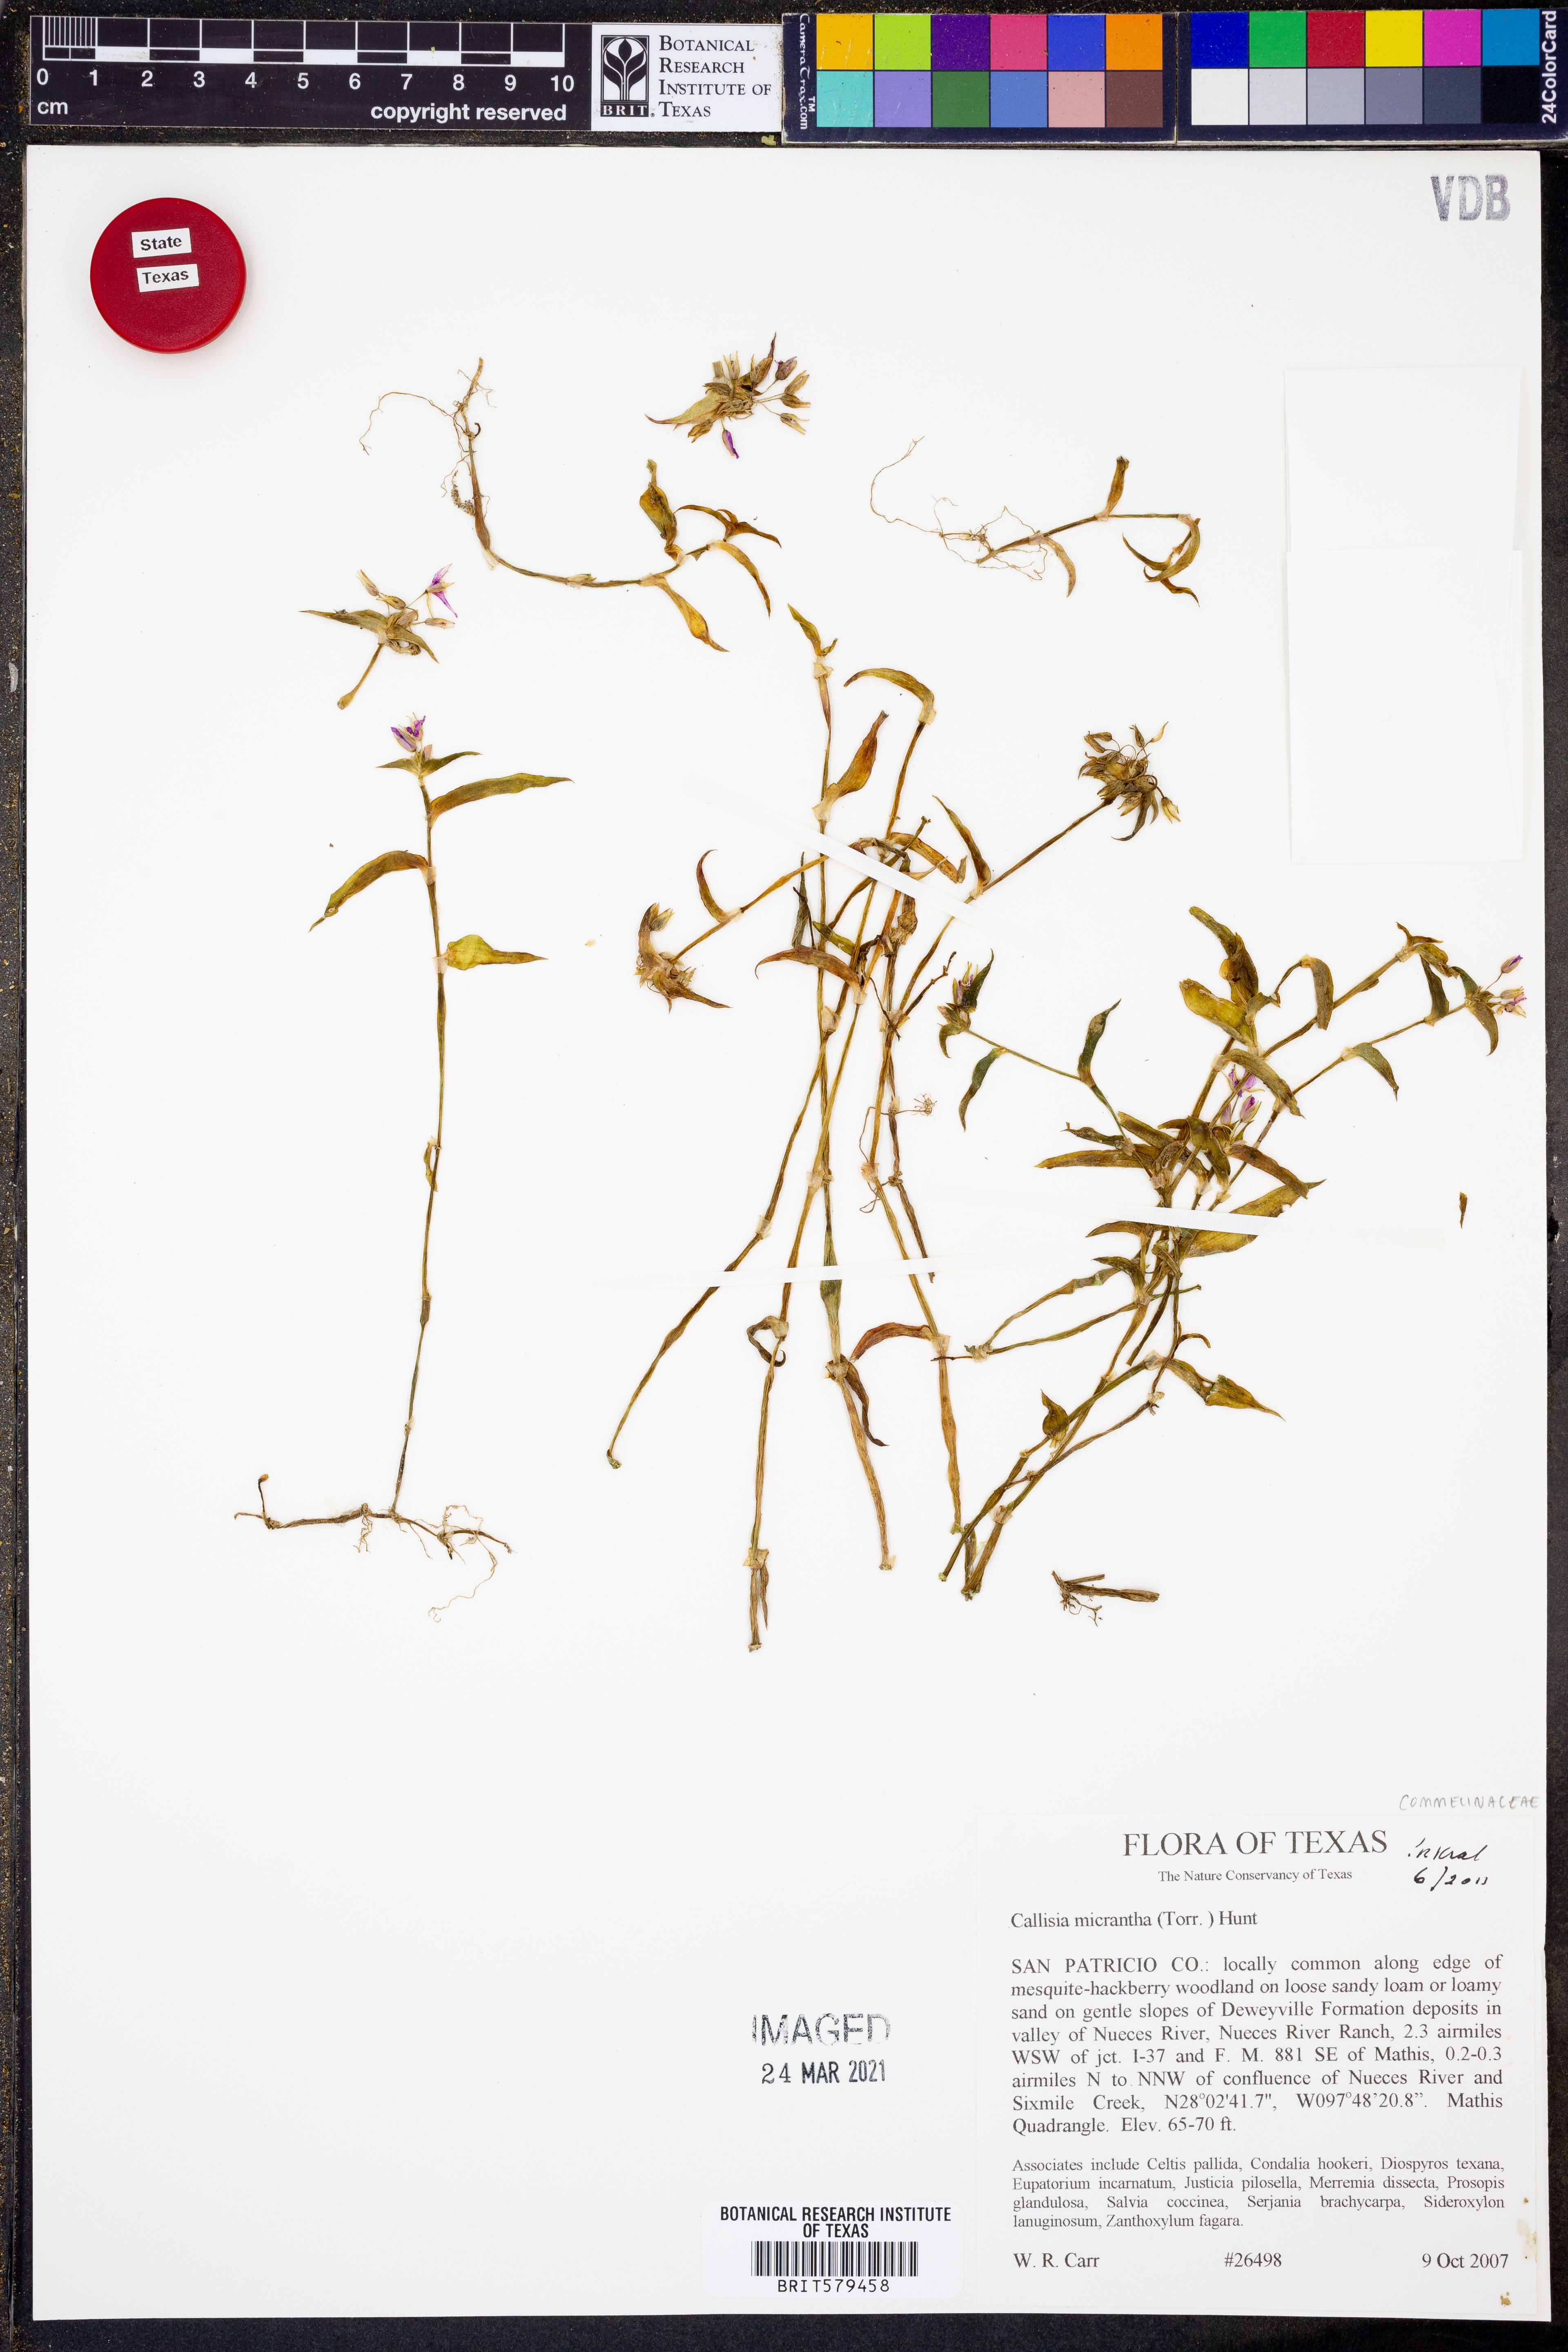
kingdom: Plantae
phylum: Tracheophyta
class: Liliopsida
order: Commelinales
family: Commelinaceae
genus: Callisia
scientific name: Callisia micrantha
